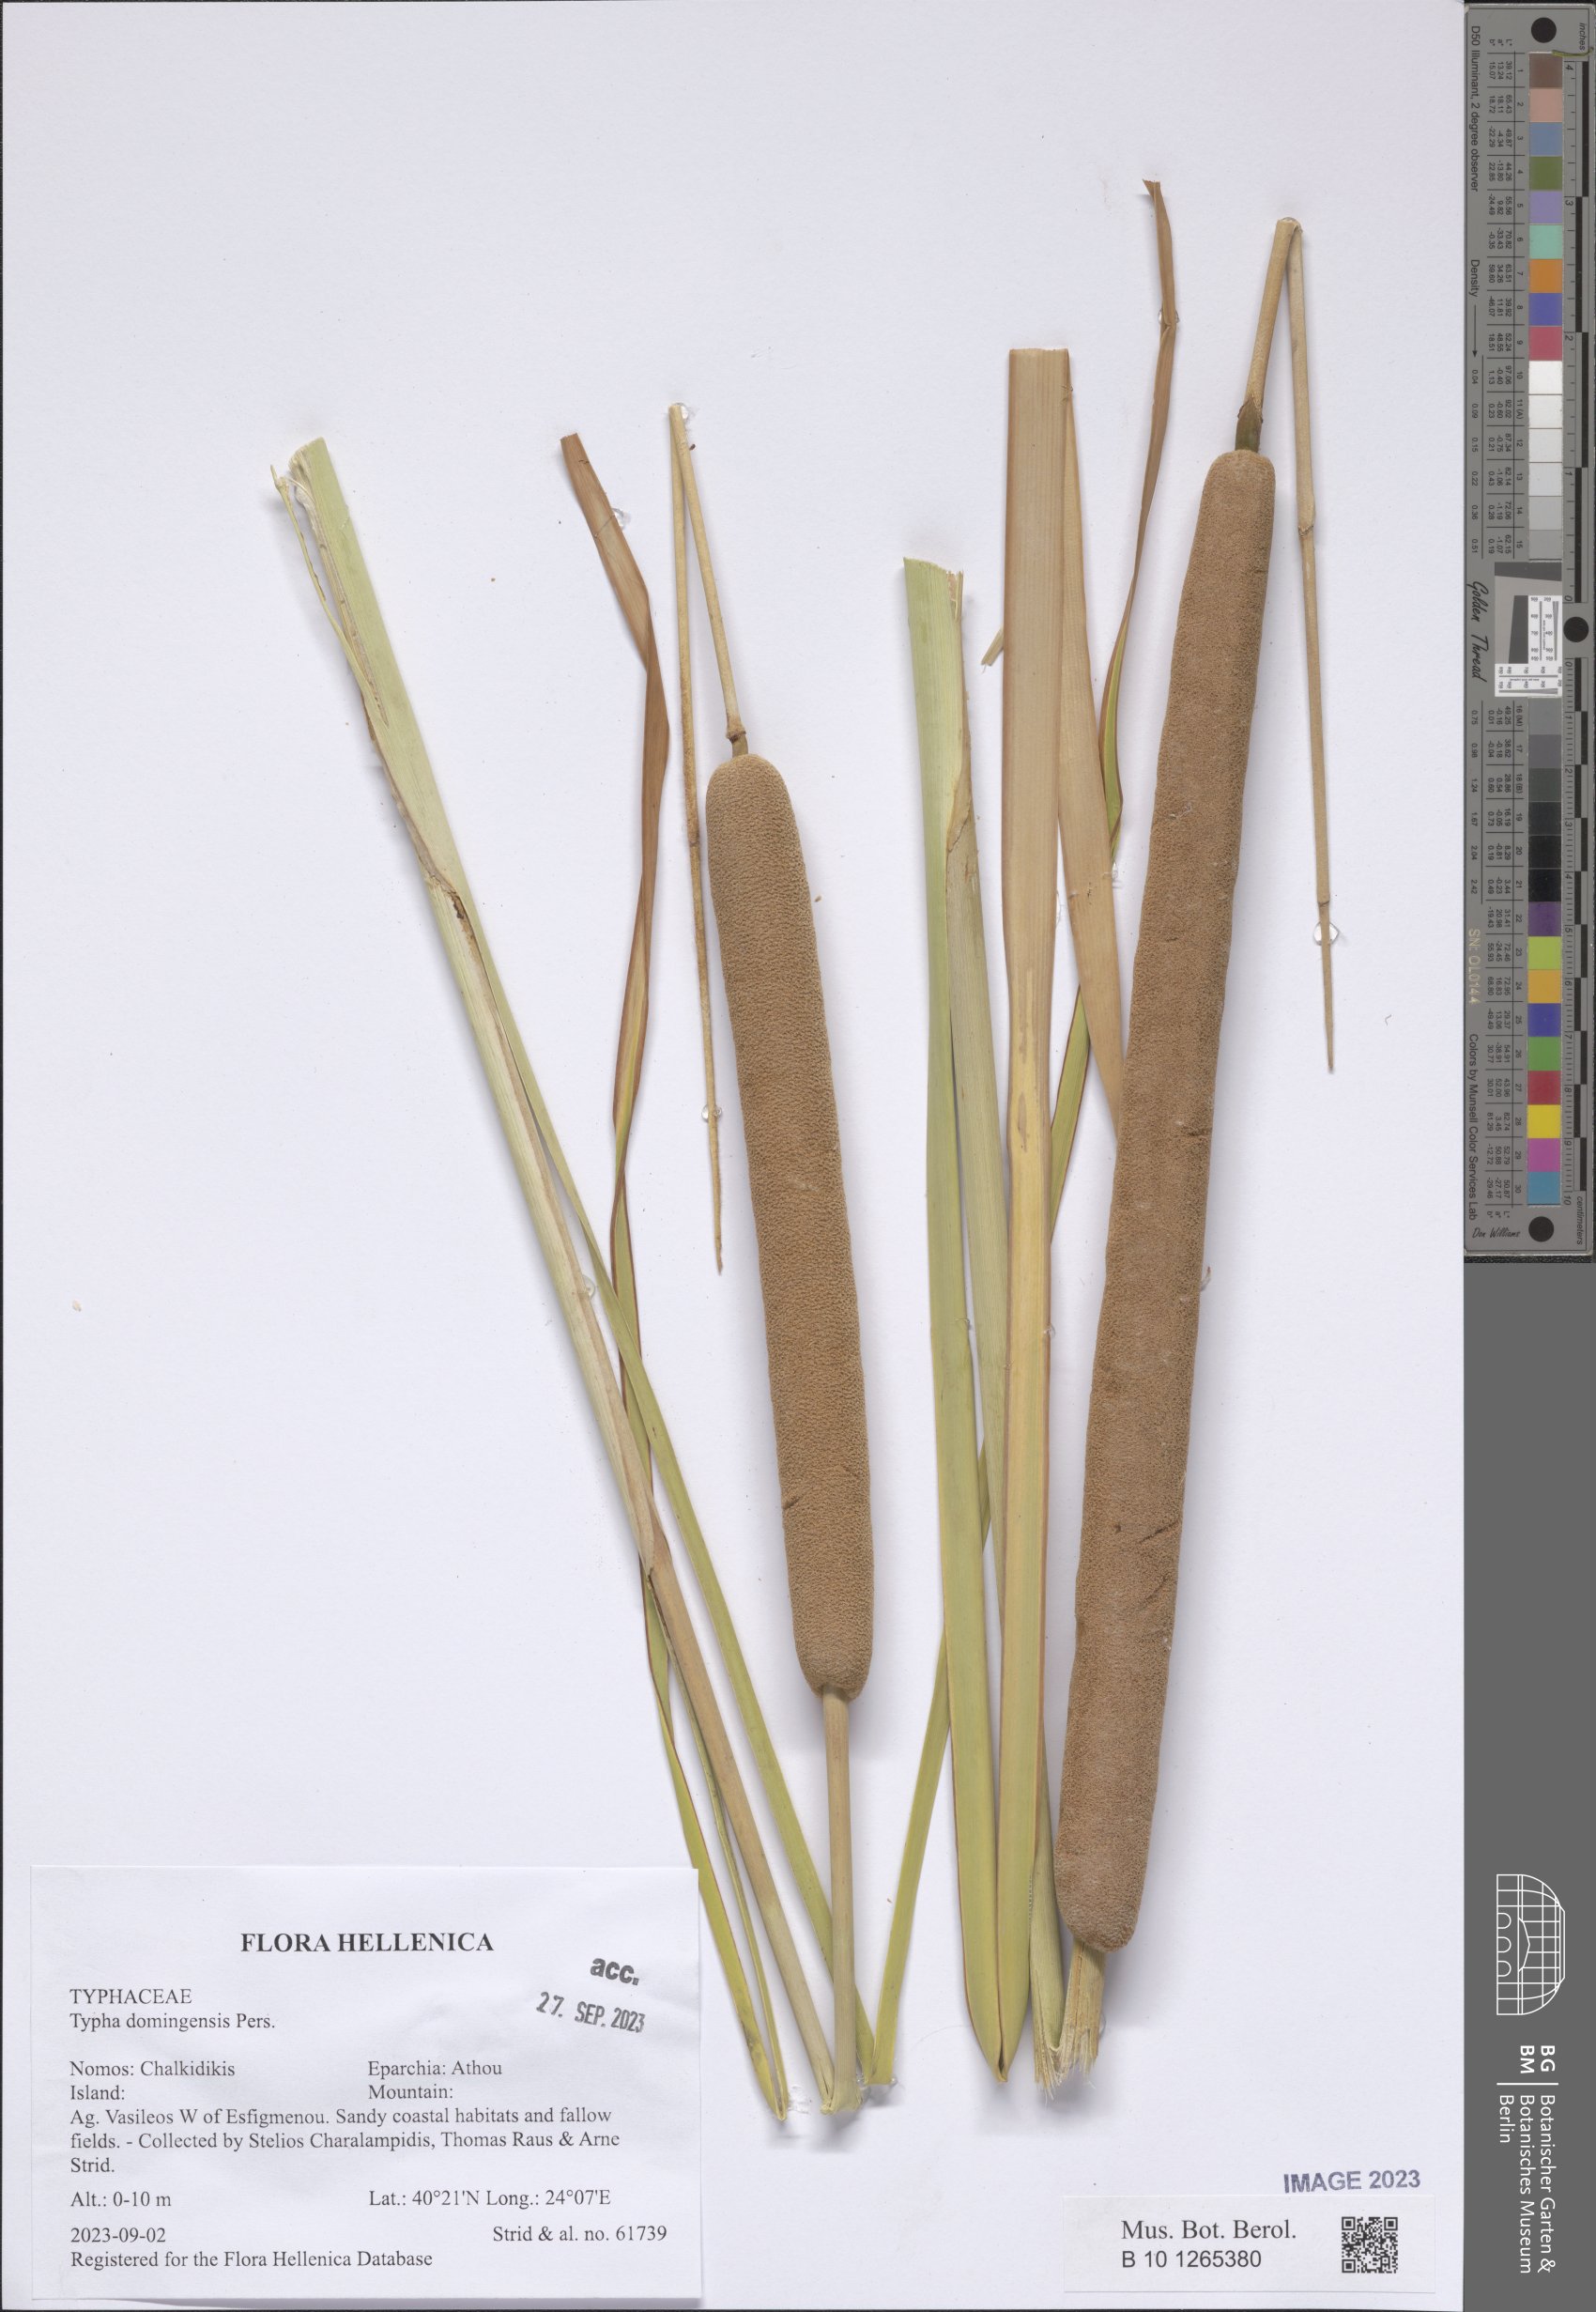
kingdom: Plantae
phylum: Tracheophyta
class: Liliopsida
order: Poales
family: Typhaceae
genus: Typha
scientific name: Typha domingensis
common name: Southern cattail
